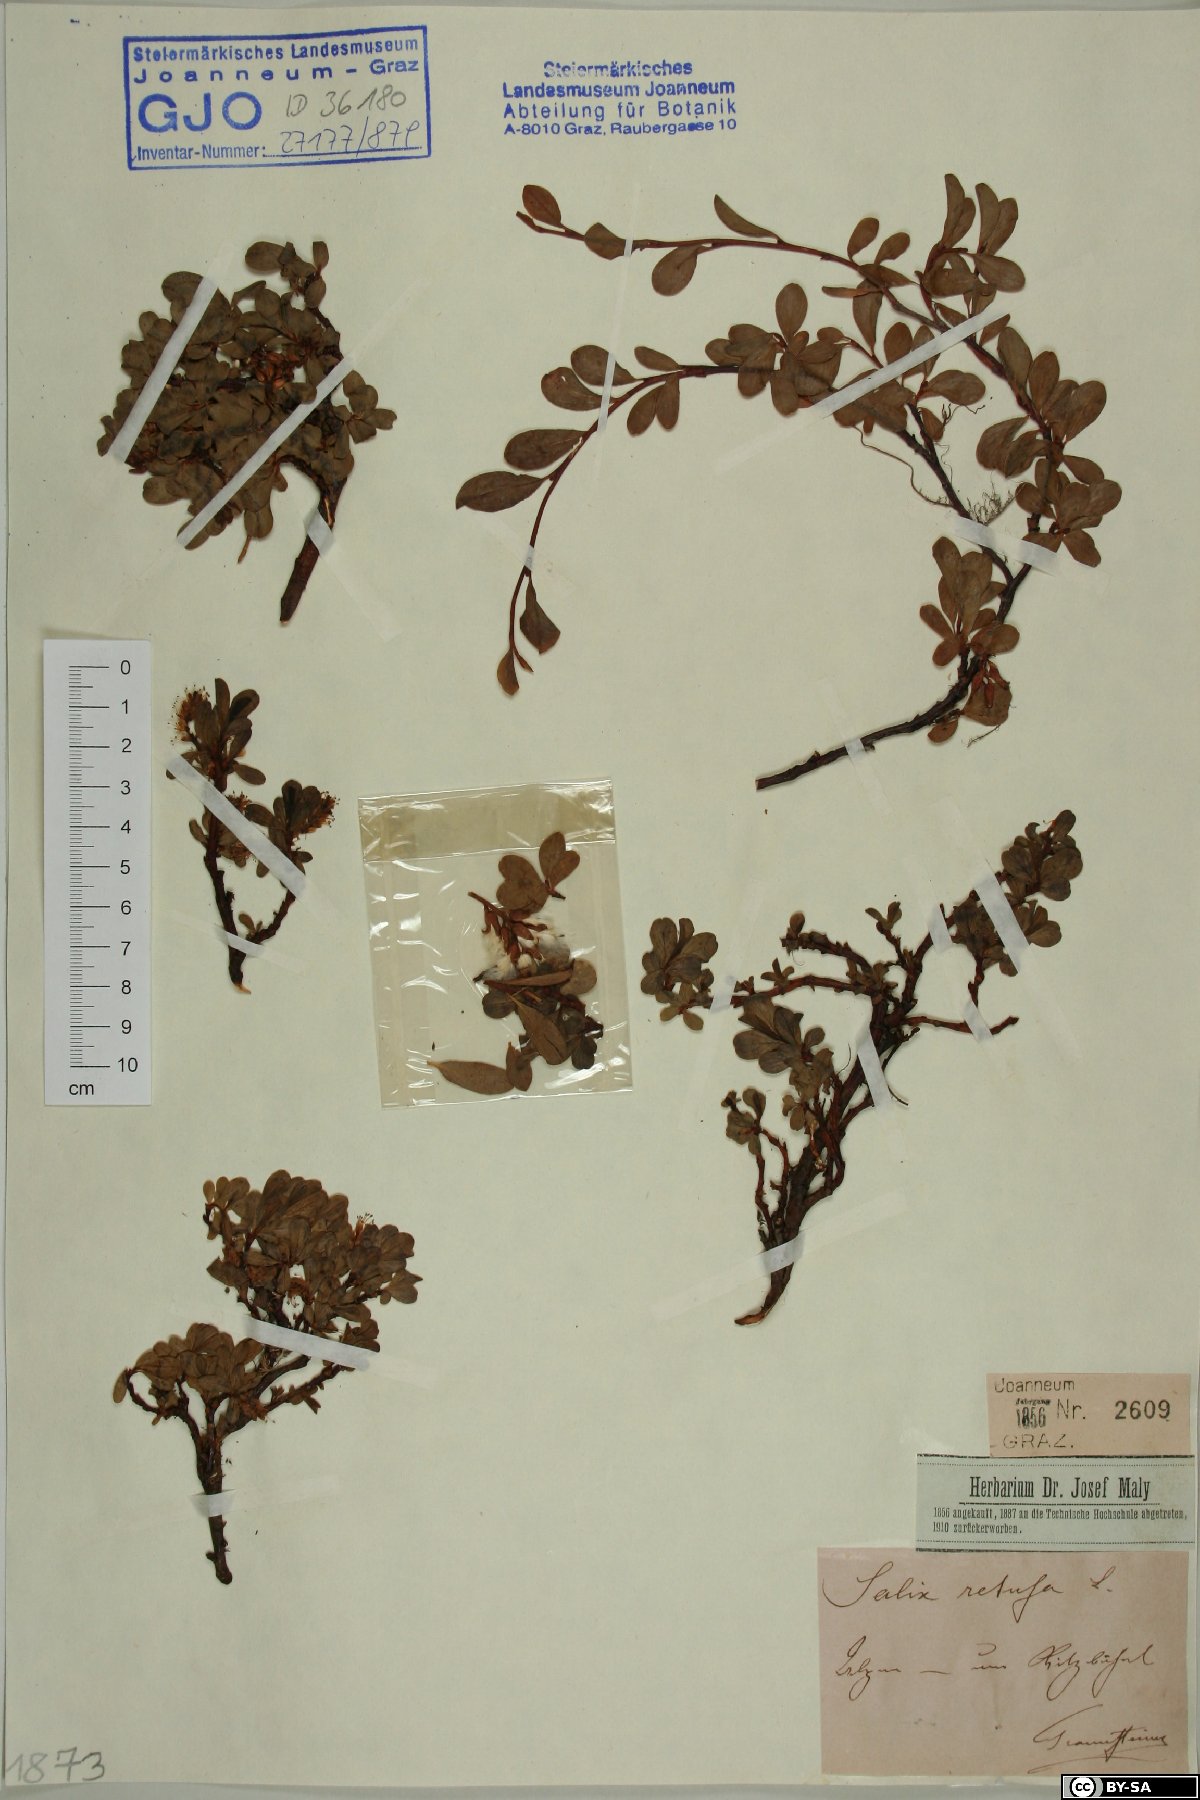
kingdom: Plantae
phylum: Tracheophyta
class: Magnoliopsida
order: Malpighiales
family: Salicaceae
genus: Salix
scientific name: Salix retusa
